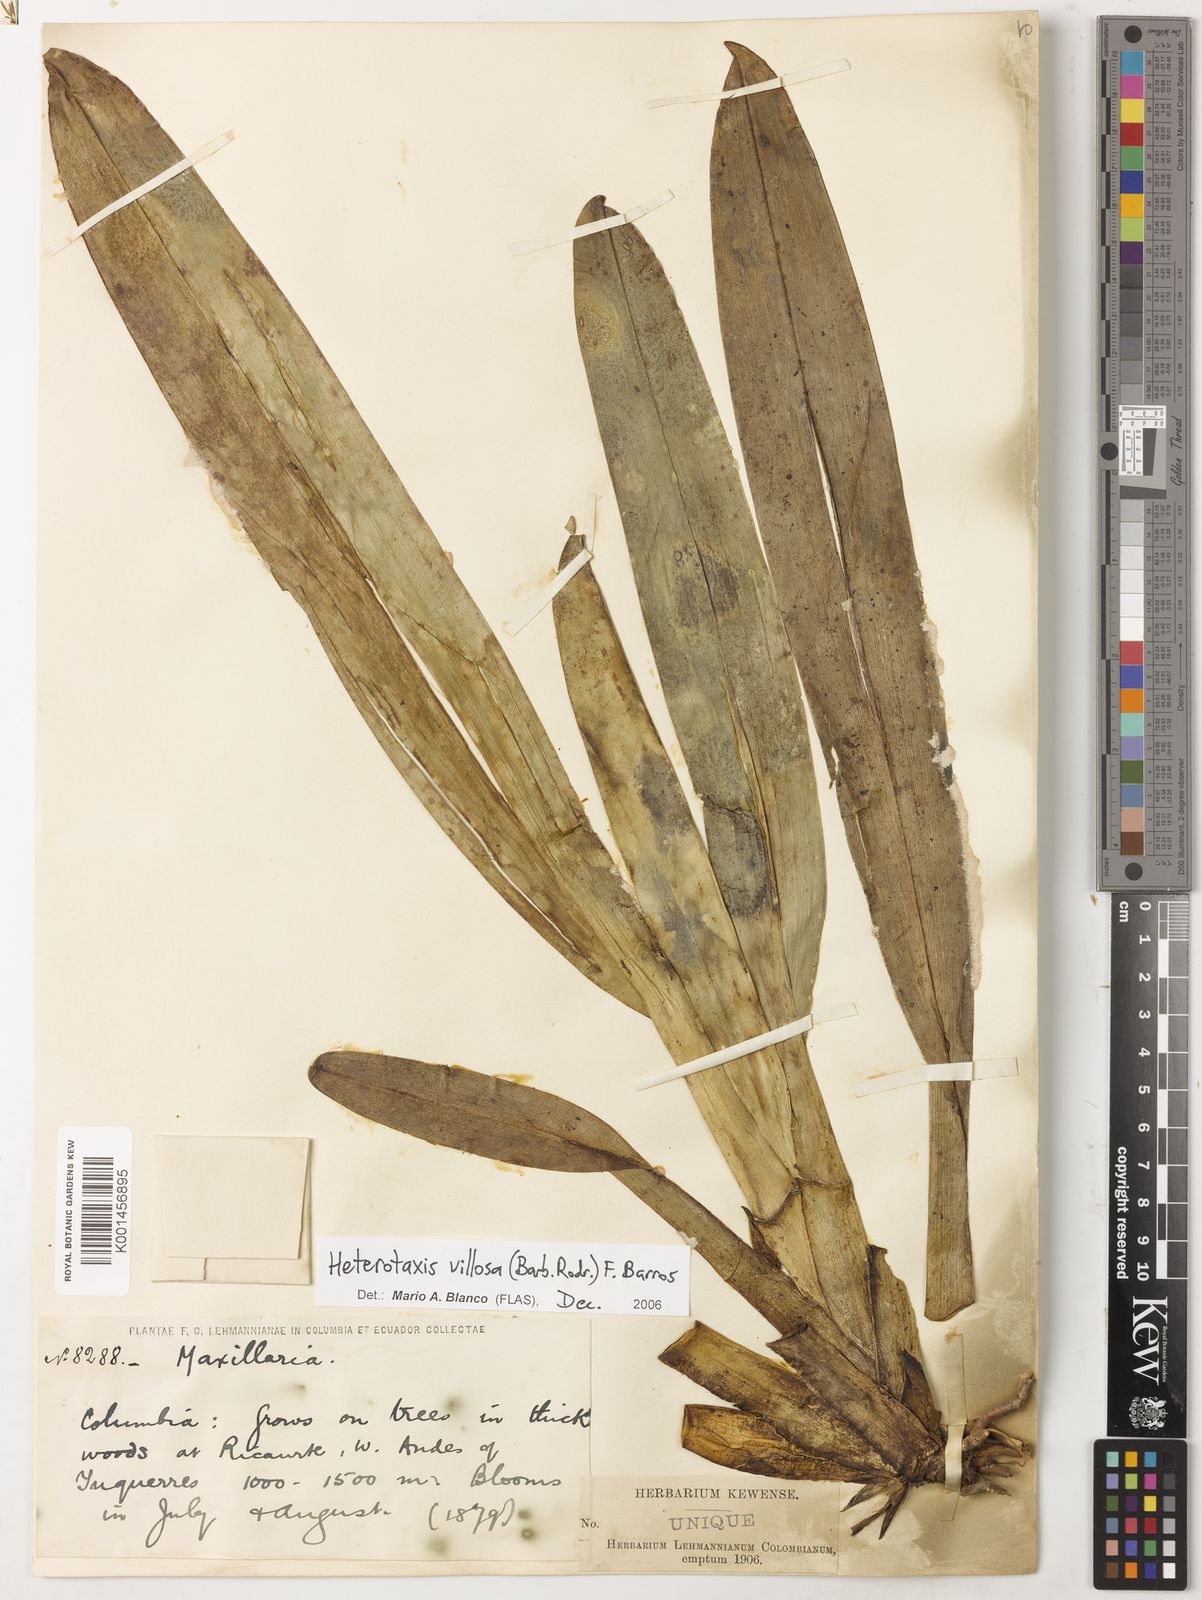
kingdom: Plantae
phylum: Tracheophyta
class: Liliopsida
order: Asparagales
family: Orchidaceae
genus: Maxillaria
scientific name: Maxillaria villosa
